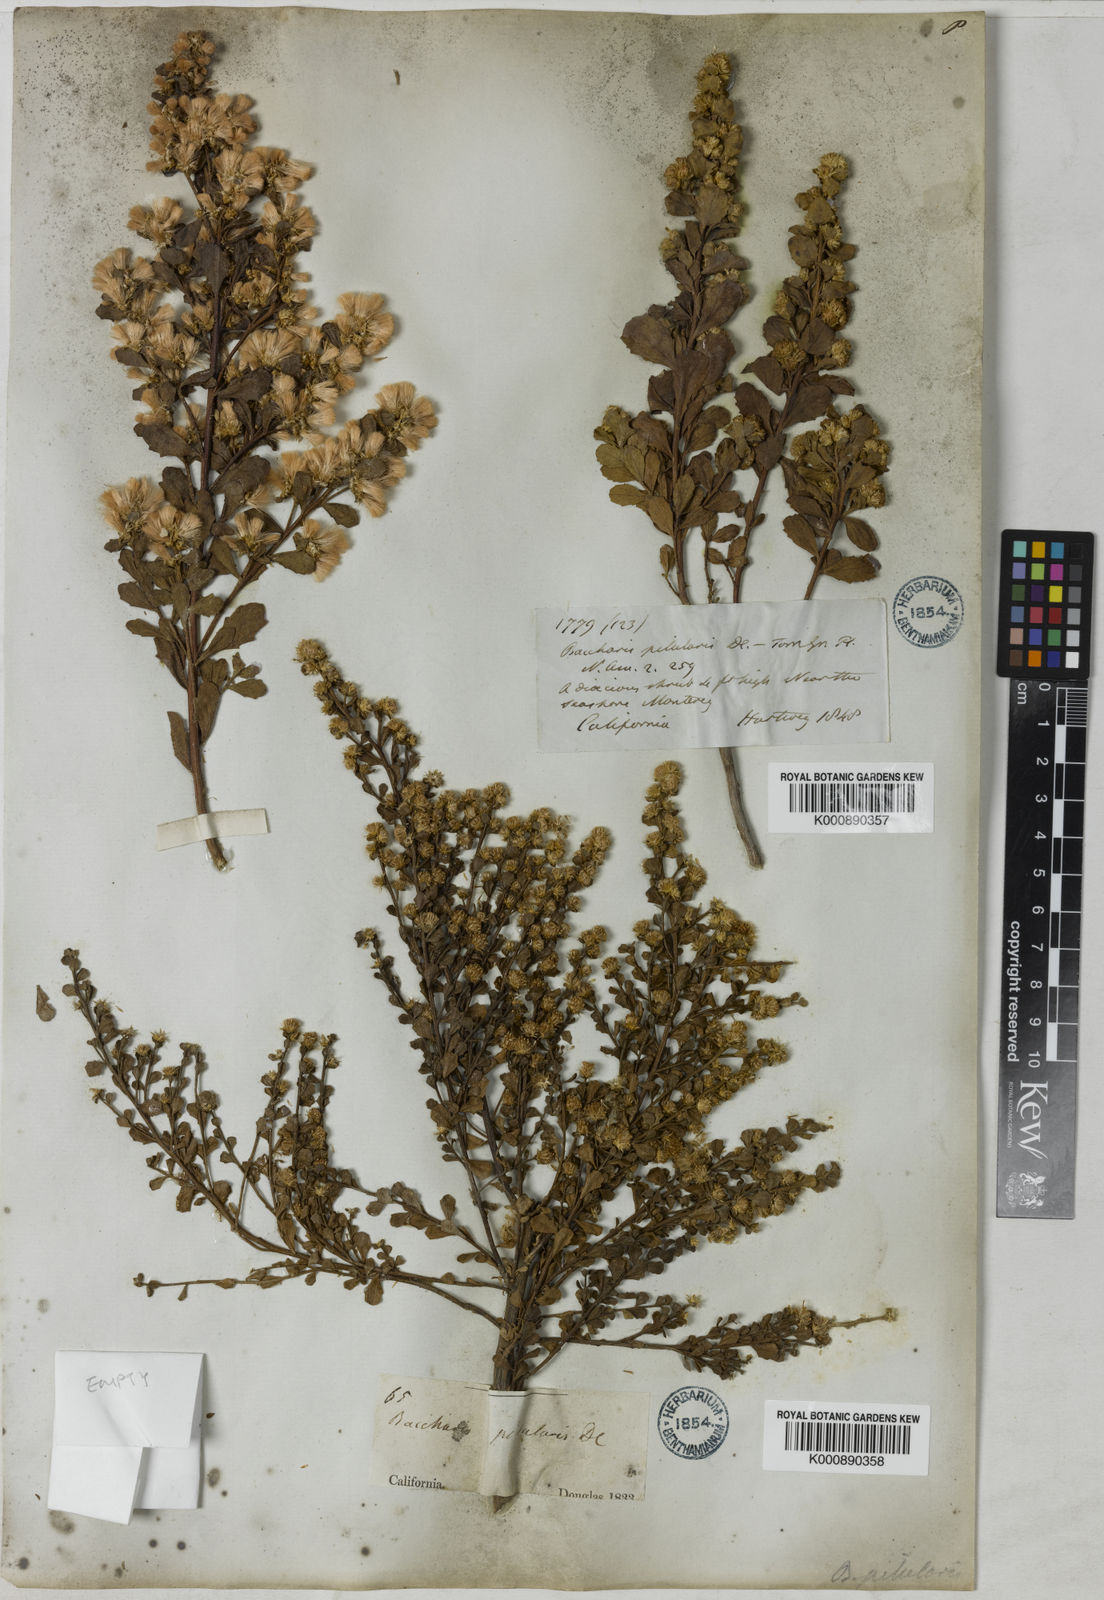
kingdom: Plantae
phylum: Tracheophyta
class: Magnoliopsida
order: Asterales
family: Asteraceae
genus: Baccharis
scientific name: Baccharis pilularis
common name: Coyotebrush
